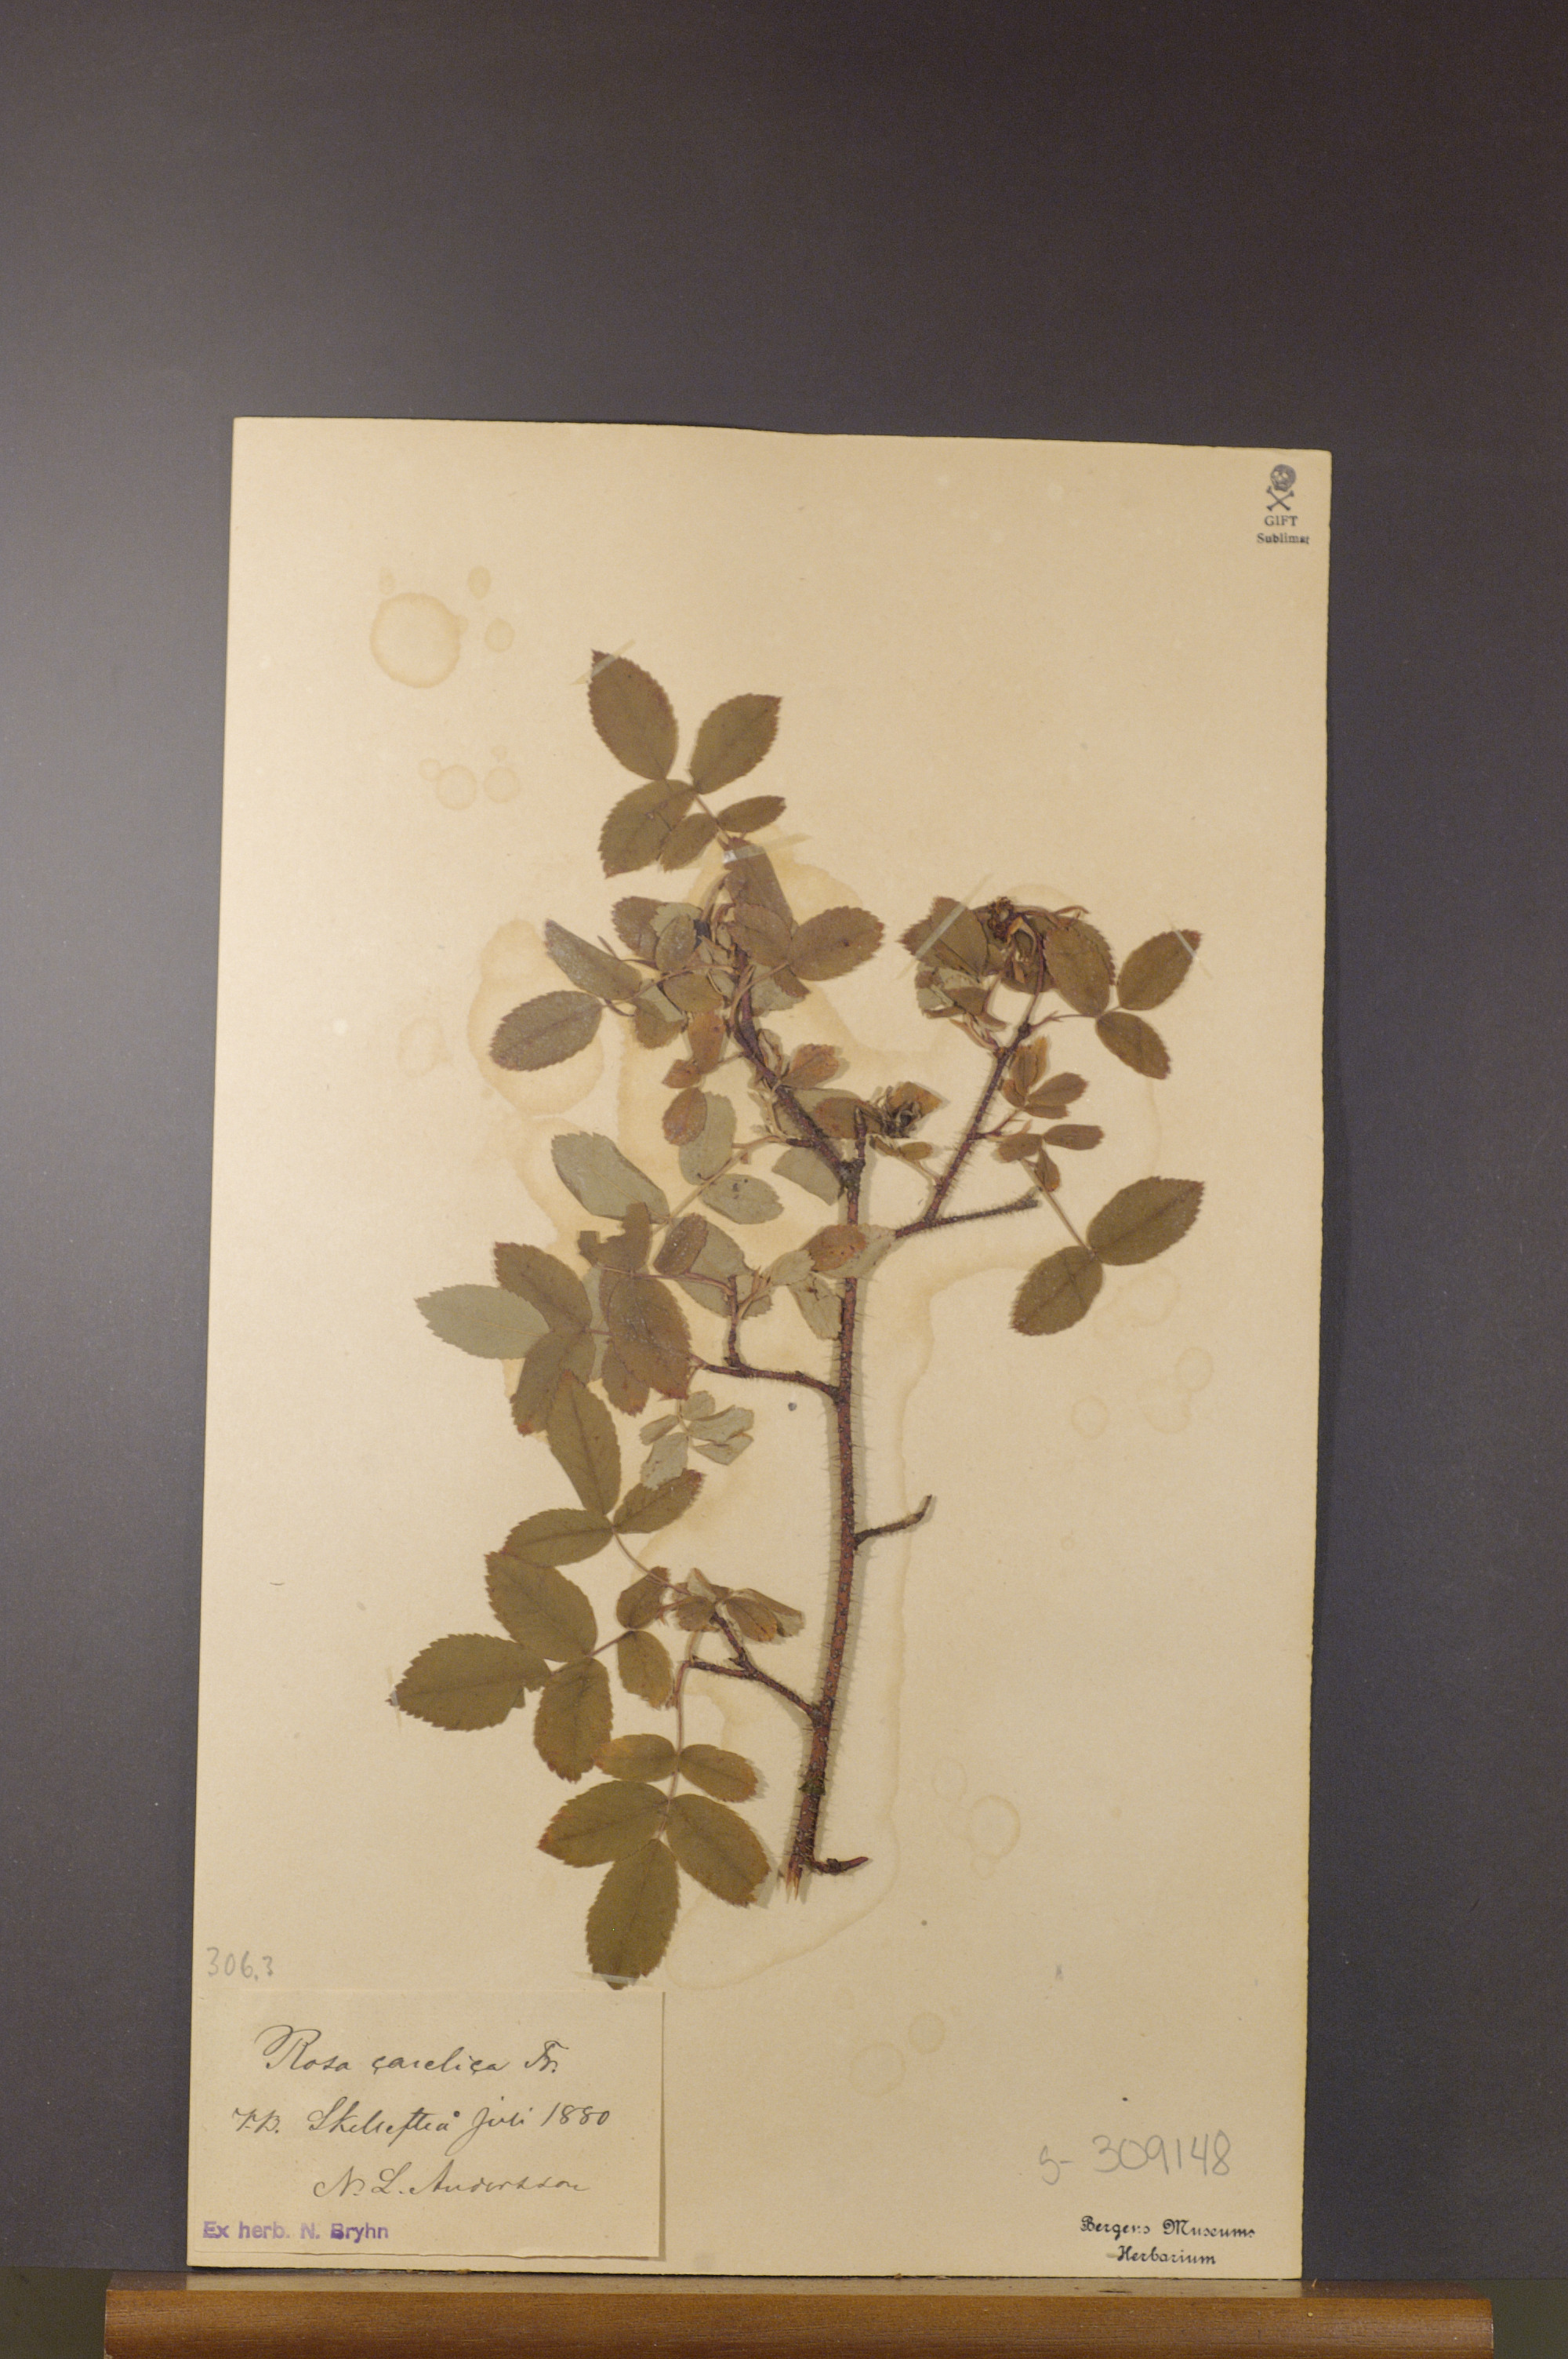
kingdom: Plantae
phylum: Tracheophyta
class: Magnoliopsida
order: Rosales
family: Rosaceae
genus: Rosa
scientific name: Rosa acicularis
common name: Prickly rose
